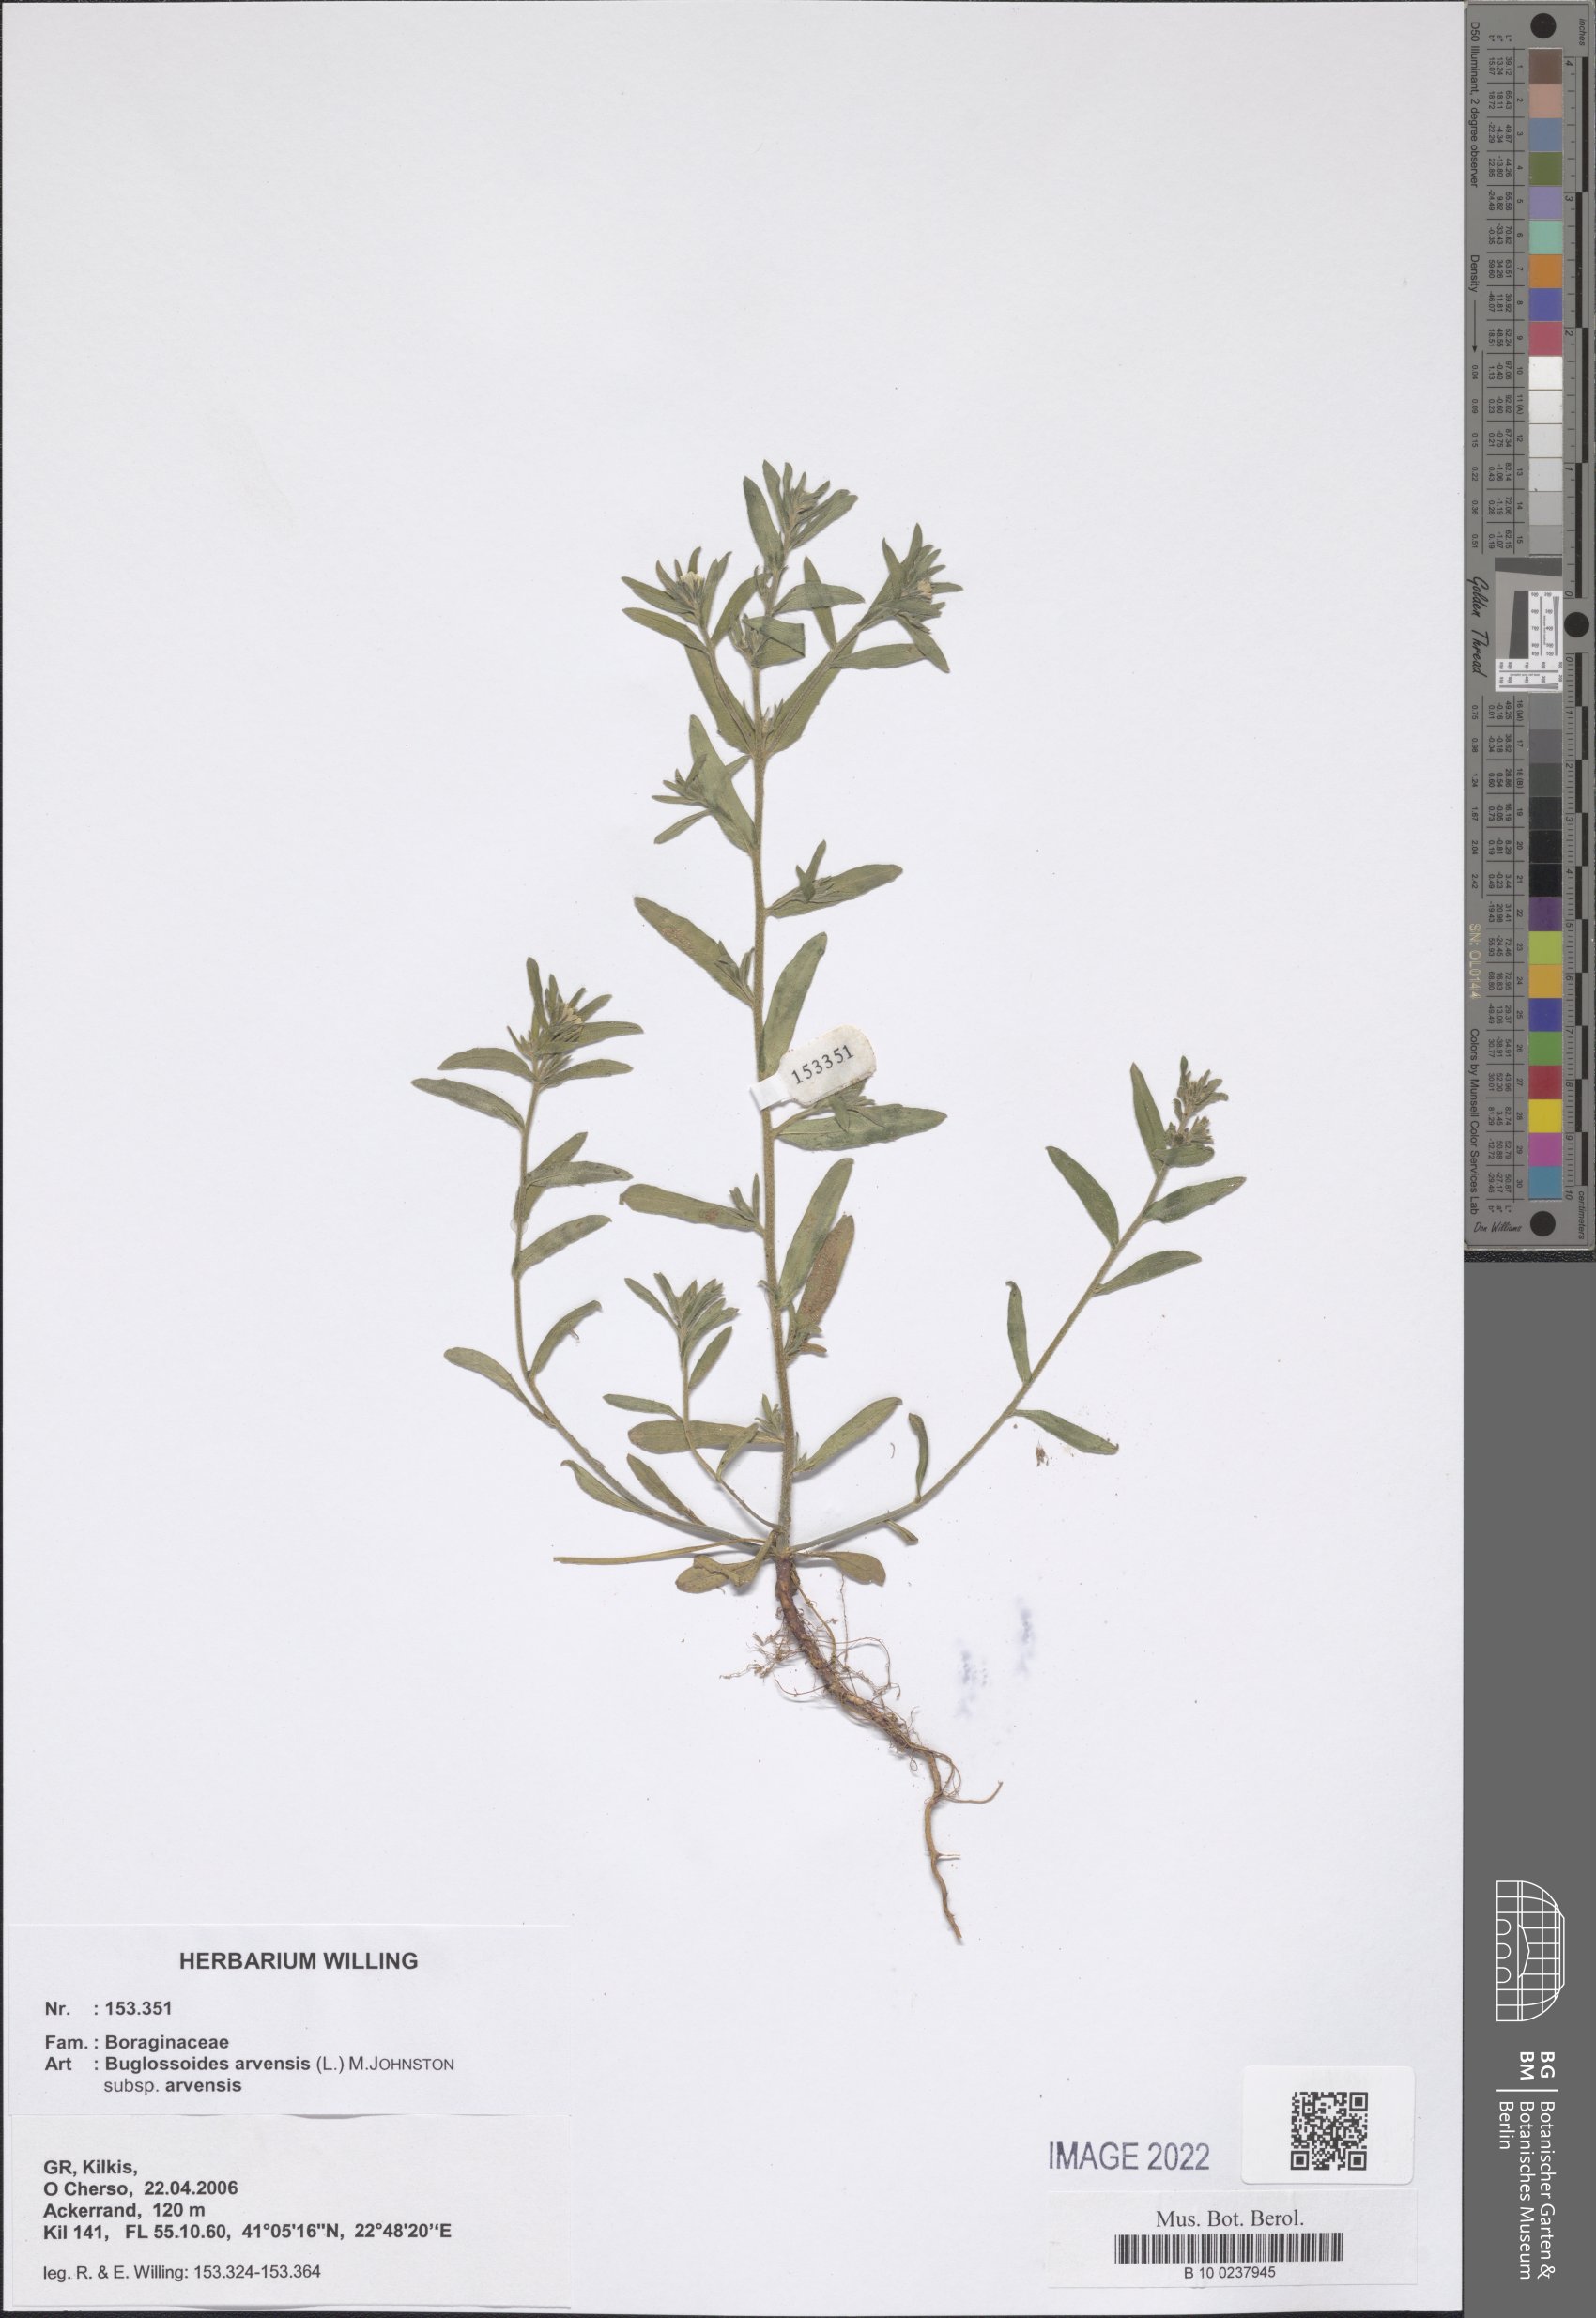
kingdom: Plantae
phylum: Tracheophyta
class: Magnoliopsida
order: Boraginales
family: Boraginaceae
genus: Buglossoides
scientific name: Buglossoides arvensis
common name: Corn gromwell
